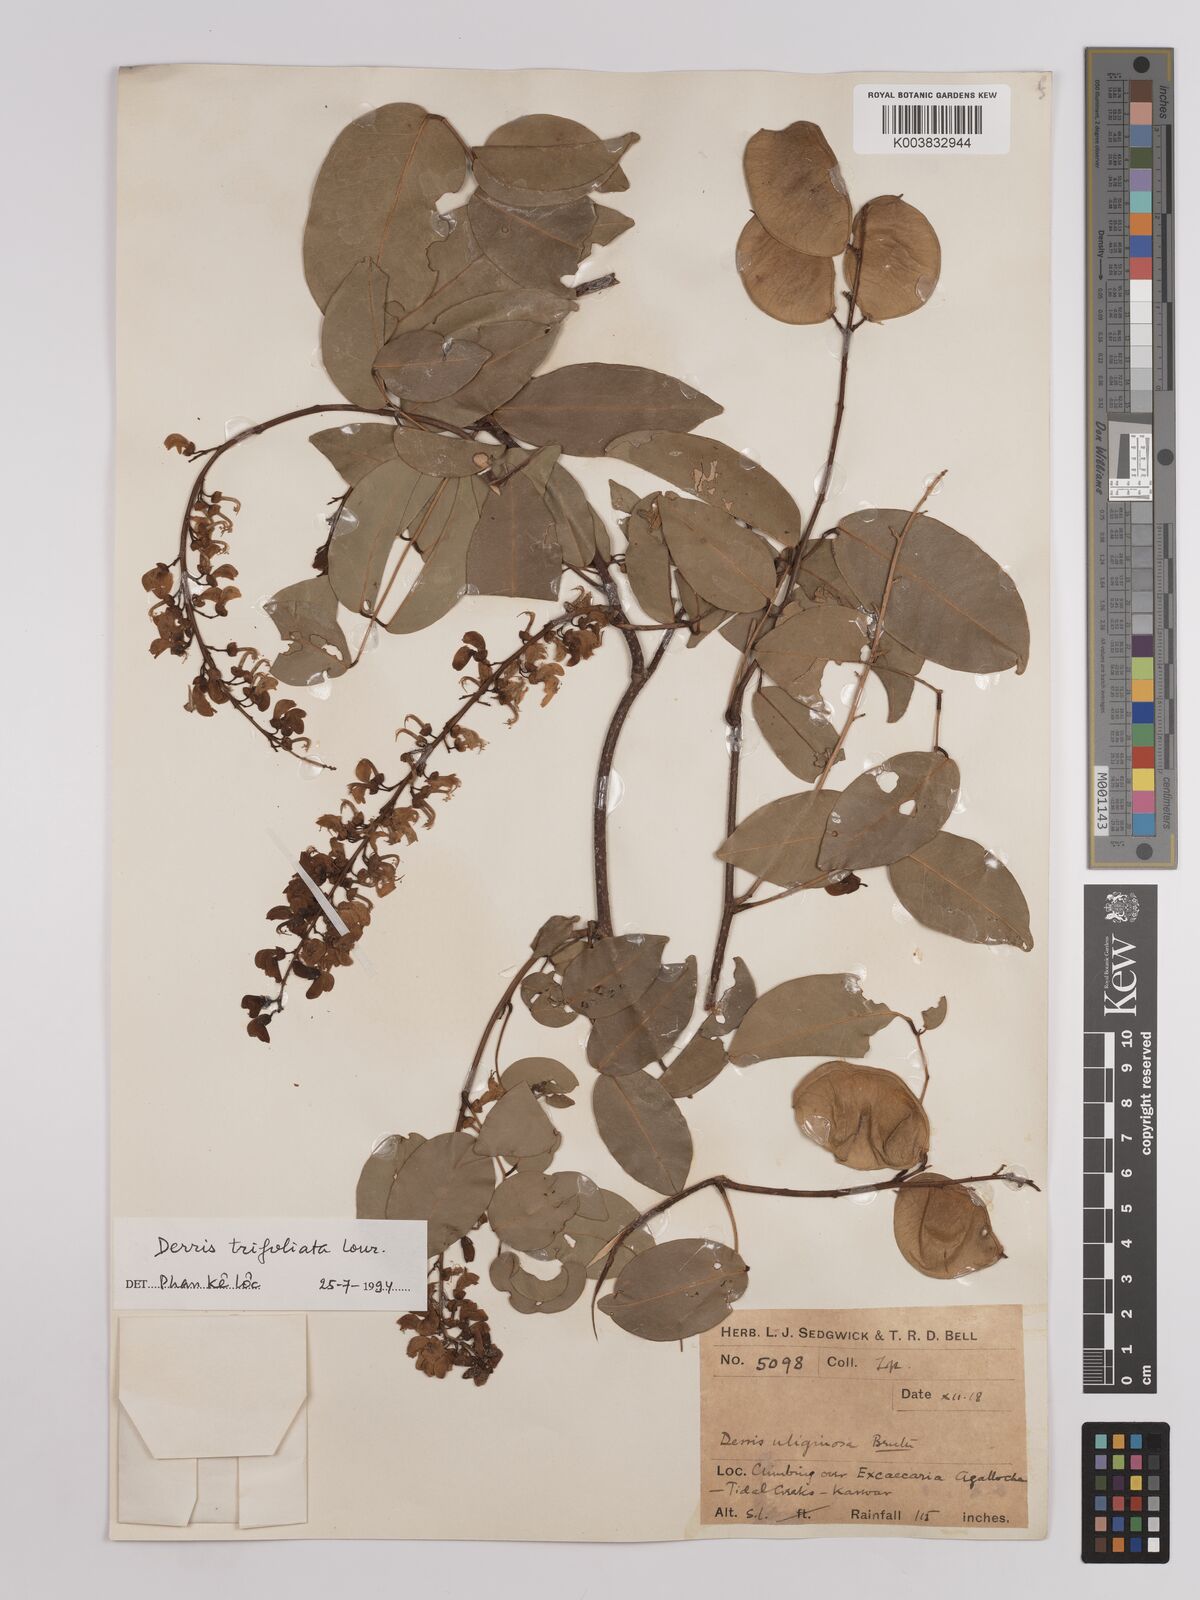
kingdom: Plantae
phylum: Tracheophyta
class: Magnoliopsida
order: Fabales
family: Fabaceae
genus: Derris
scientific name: Derris trifoliata
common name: Three-leaf derris
